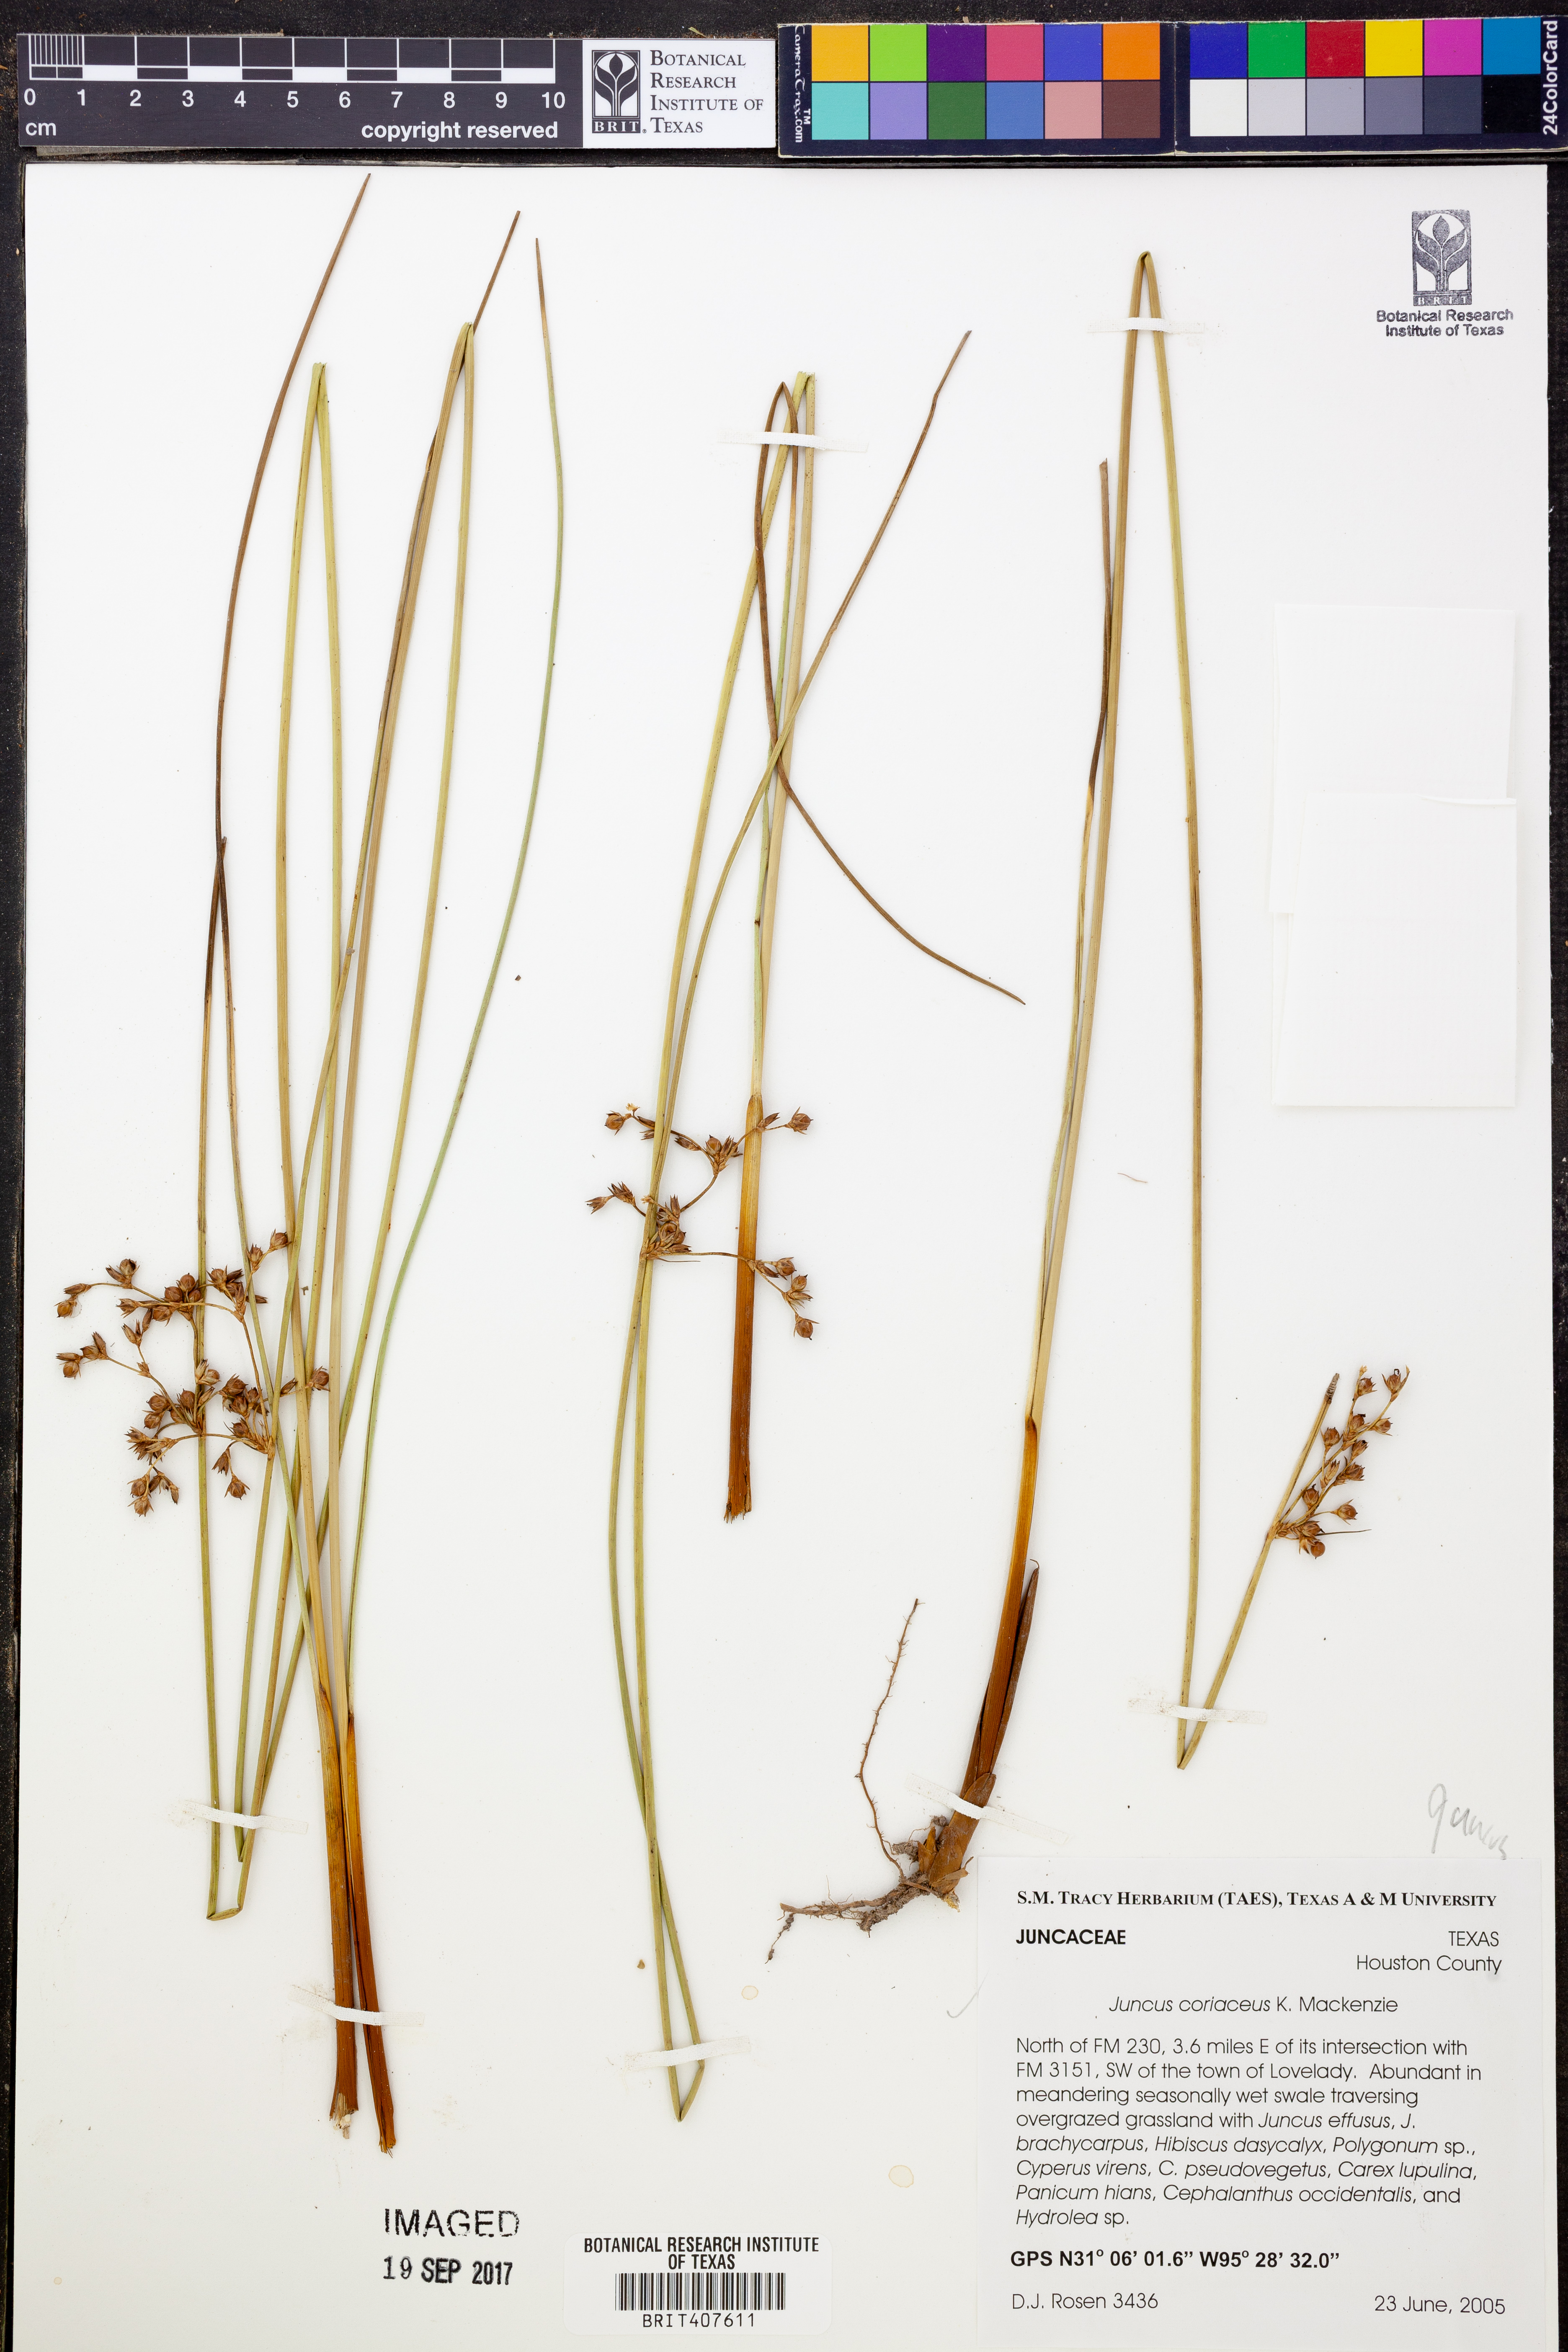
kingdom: Plantae
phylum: Tracheophyta
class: Liliopsida
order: Poales
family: Juncaceae
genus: Juncus
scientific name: Juncus coriaceus
